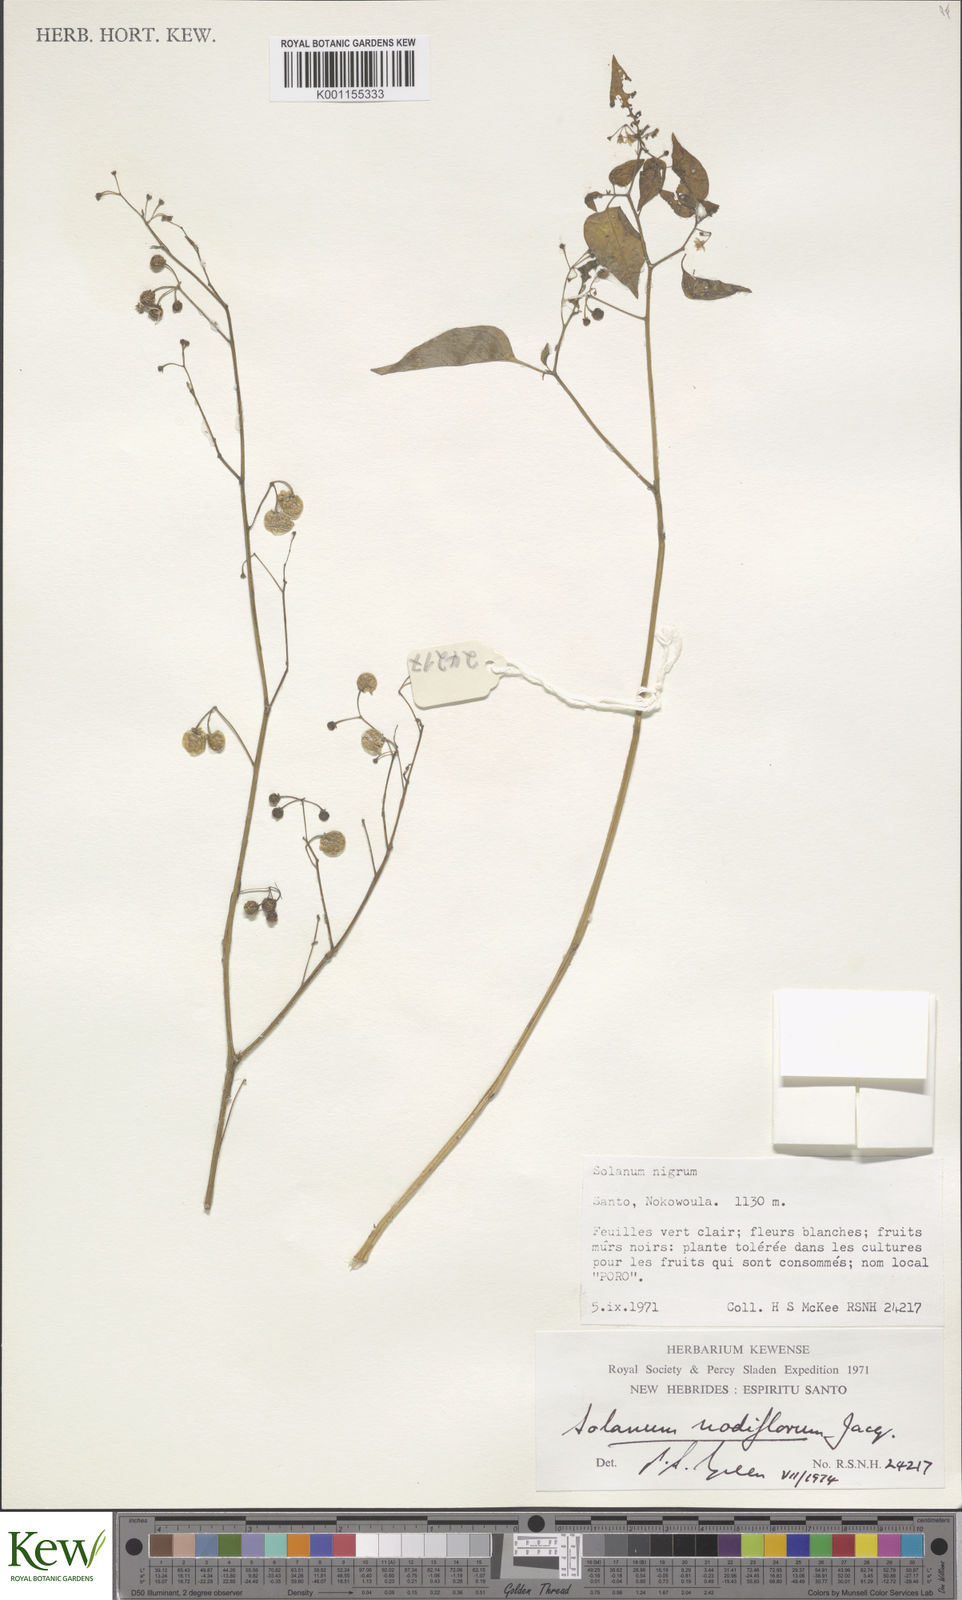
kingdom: Plantae
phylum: Tracheophyta
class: Magnoliopsida
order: Solanales
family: Solanaceae
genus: Solanum
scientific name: Solanum americanum
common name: American black nightshade
